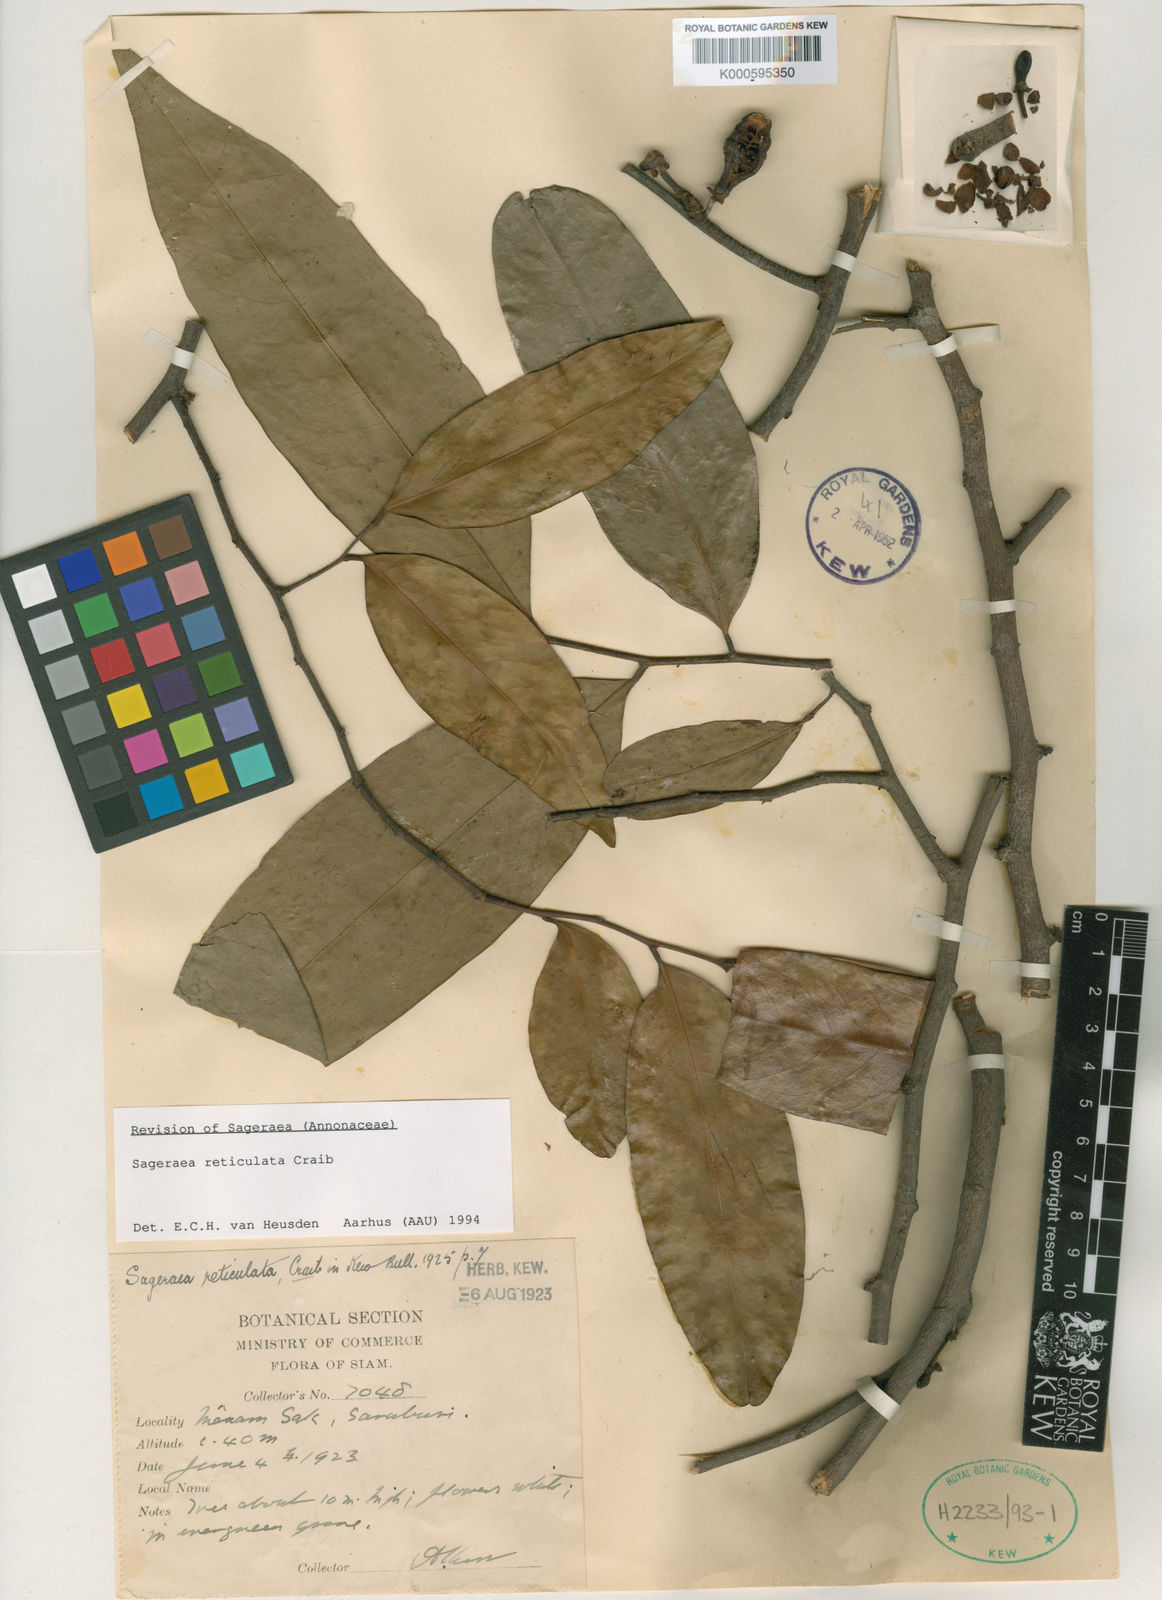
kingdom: Plantae
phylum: Tracheophyta
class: Magnoliopsida
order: Magnoliales
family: Annonaceae
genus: Sageraea
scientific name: Sageraea reticulata
